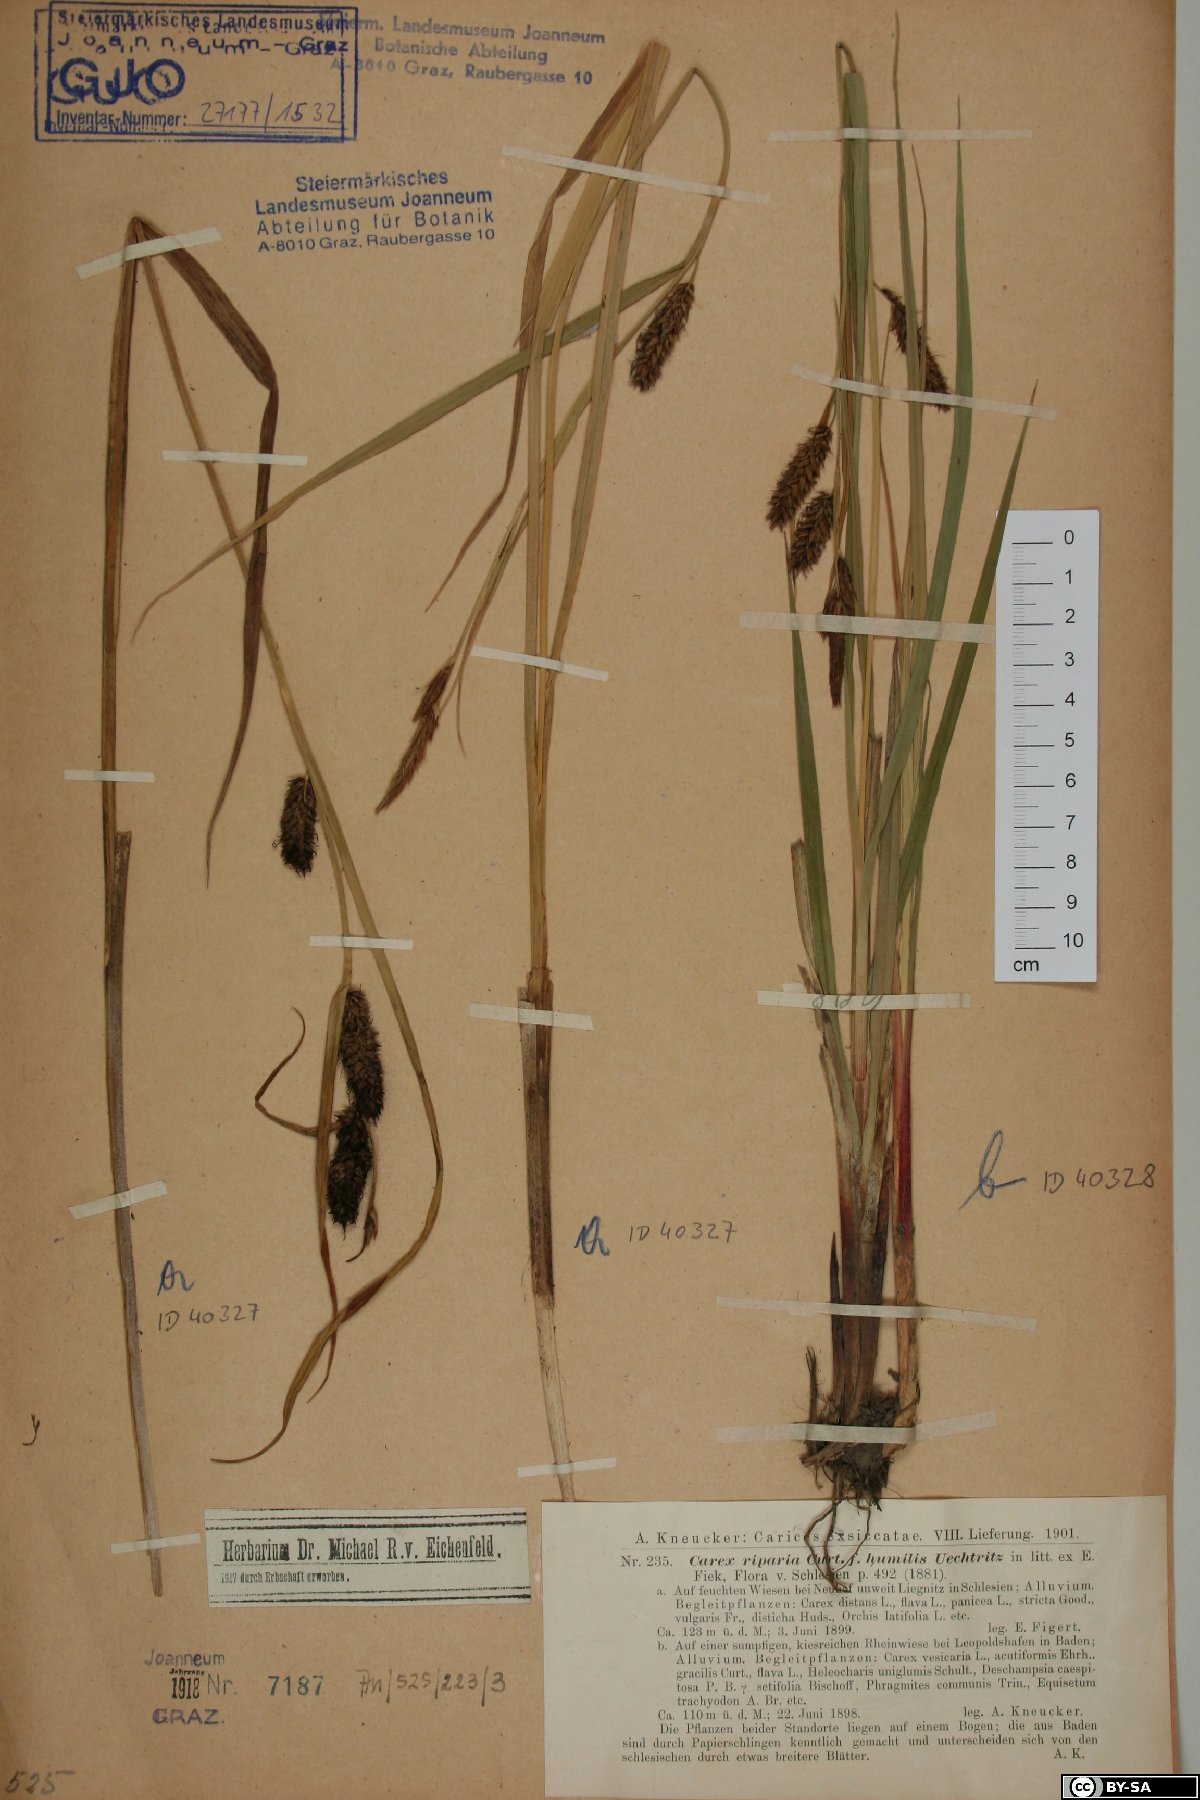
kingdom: Plantae
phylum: Tracheophyta
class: Liliopsida
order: Poales
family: Cyperaceae
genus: Carex
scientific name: Carex riparia
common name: Greater pond-sedge
